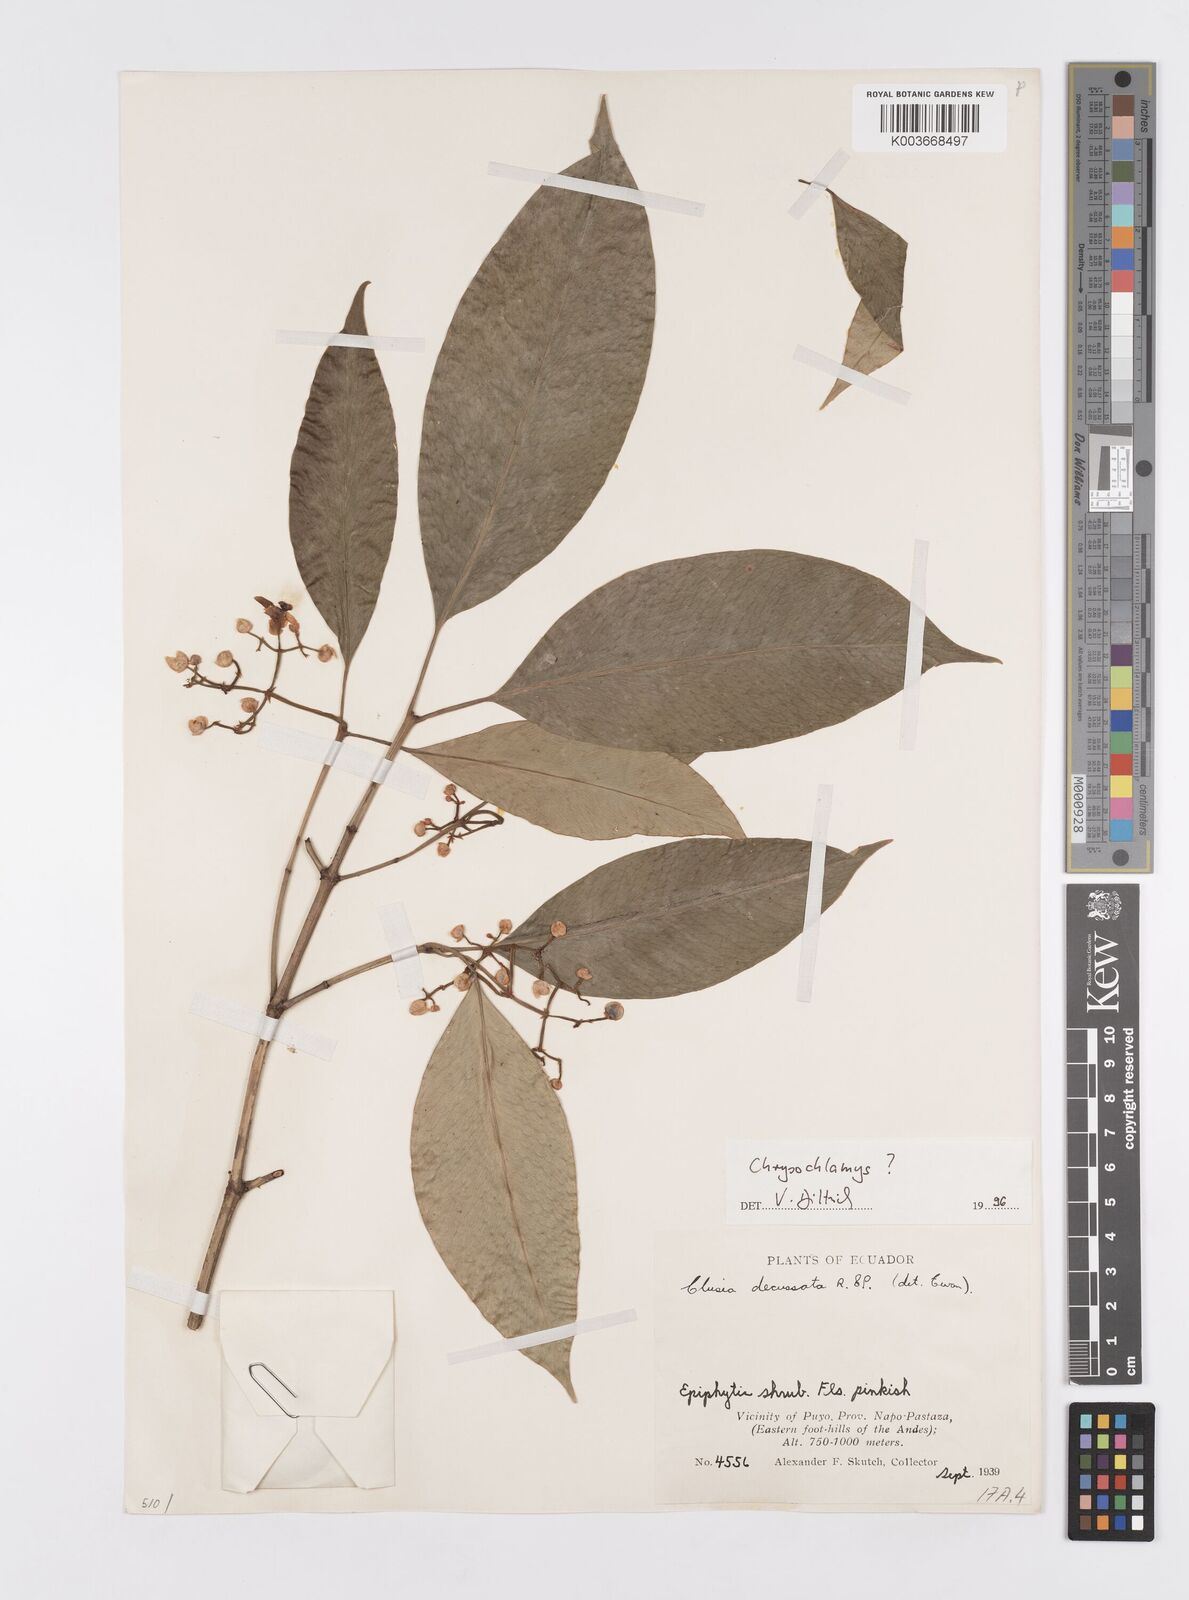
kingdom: Plantae
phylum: Tracheophyta
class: Magnoliopsida
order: Malpighiales
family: Clusiaceae
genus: Chrysochlamys
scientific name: Chrysochlamys
